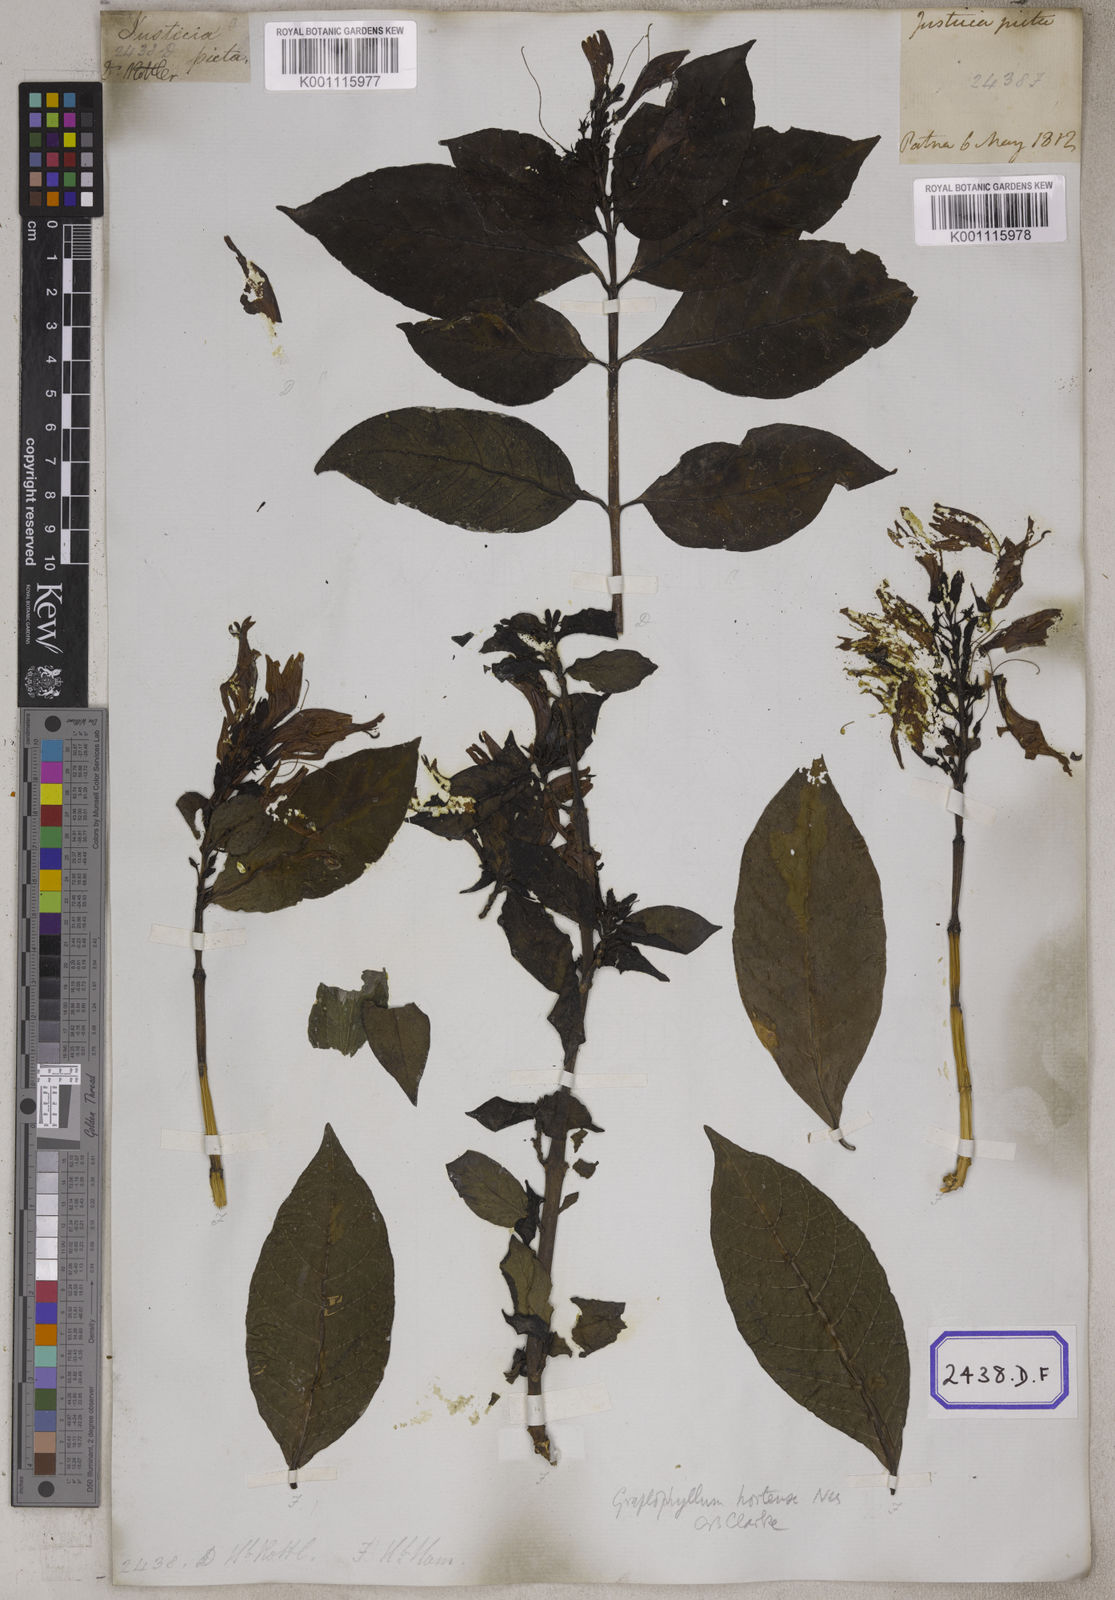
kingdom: Plantae
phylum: Tracheophyta
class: Magnoliopsida
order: Lamiales
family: Acanthaceae
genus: Graptophyllum
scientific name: Graptophyllum pictum
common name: Caricature-plant
